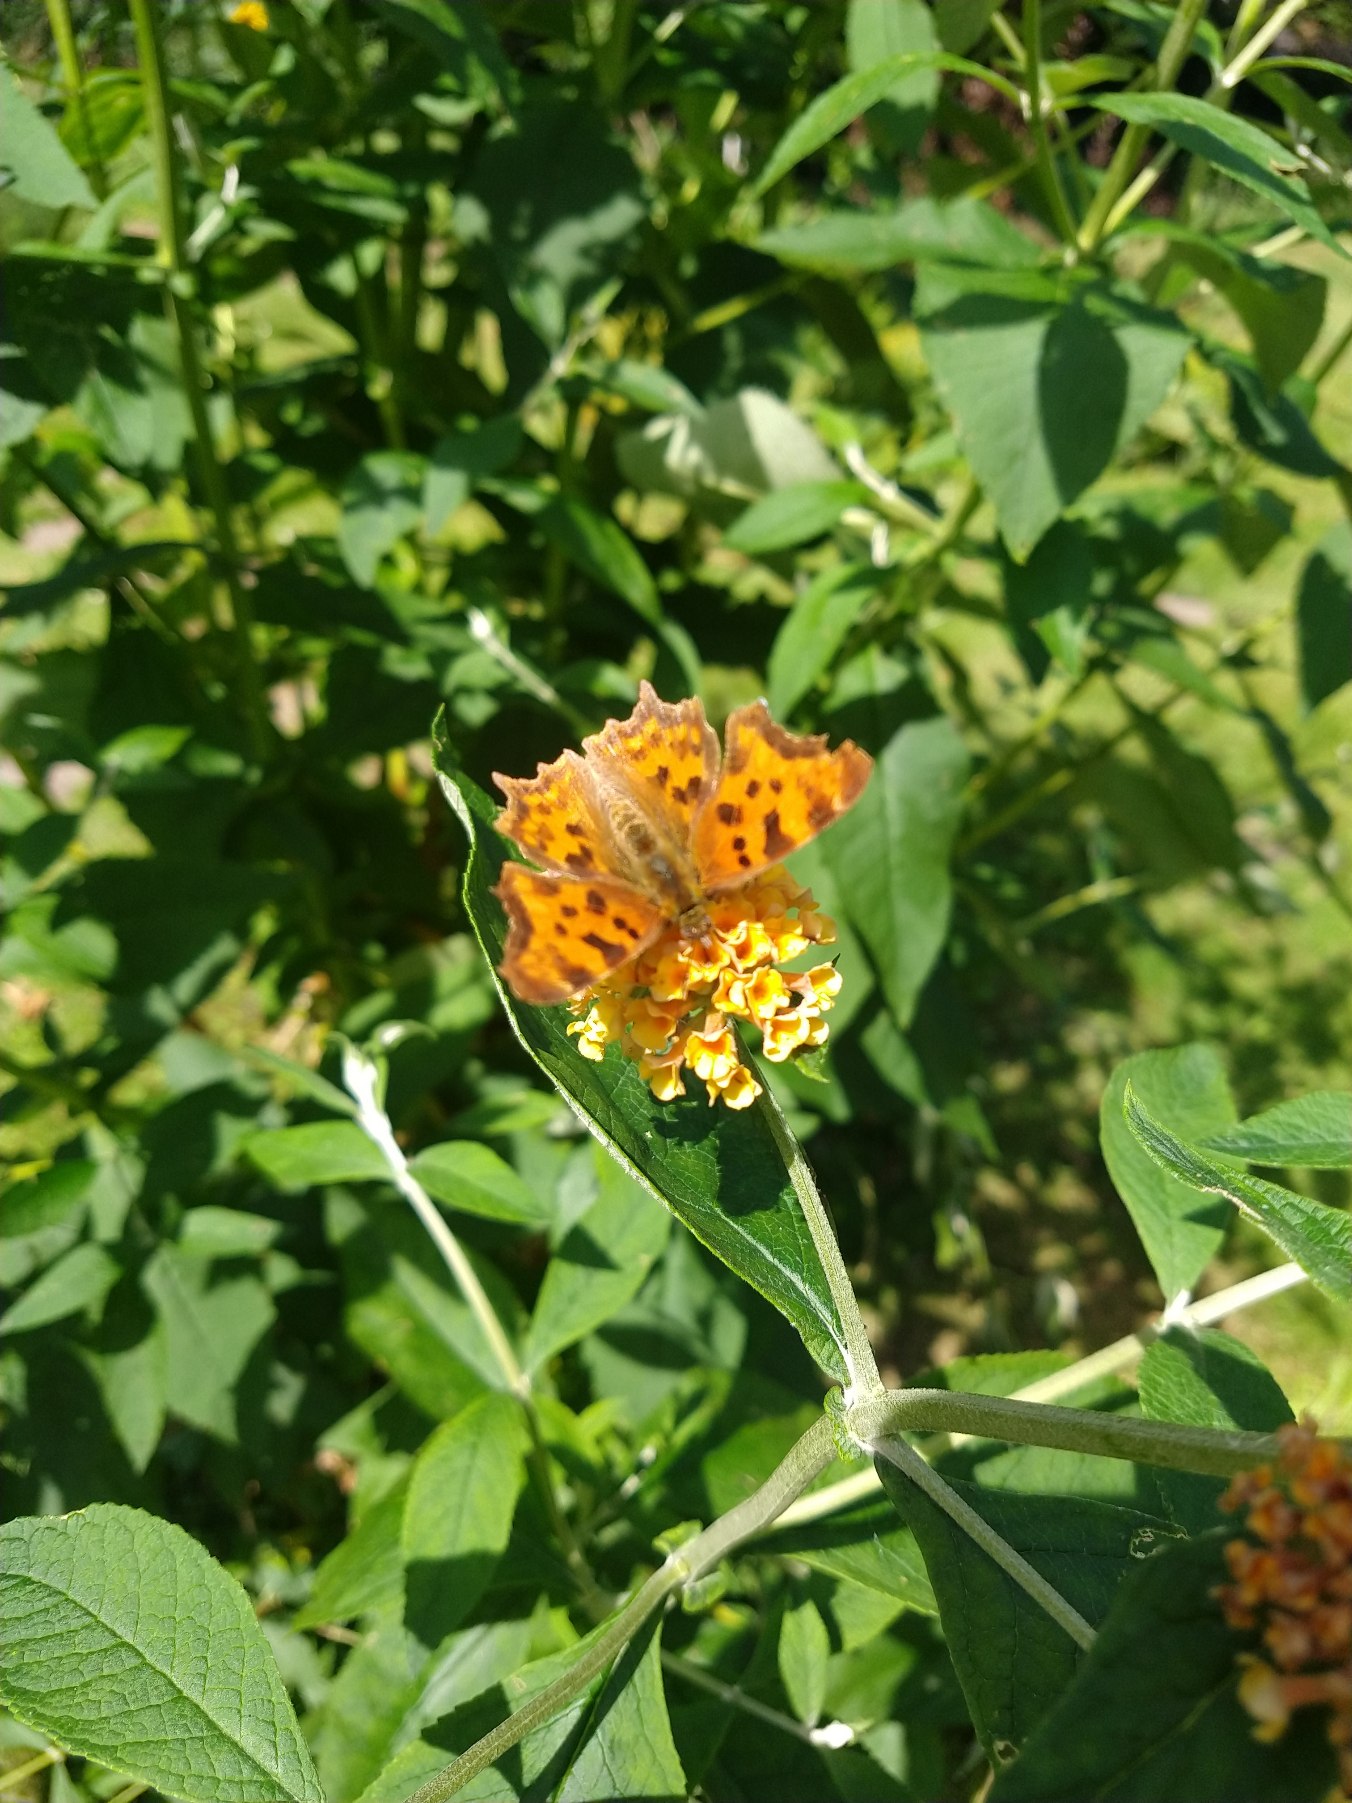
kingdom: Animalia
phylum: Arthropoda
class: Insecta
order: Lepidoptera
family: Nymphalidae
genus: Polygonia
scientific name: Polygonia c-album
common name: Det hvide C
